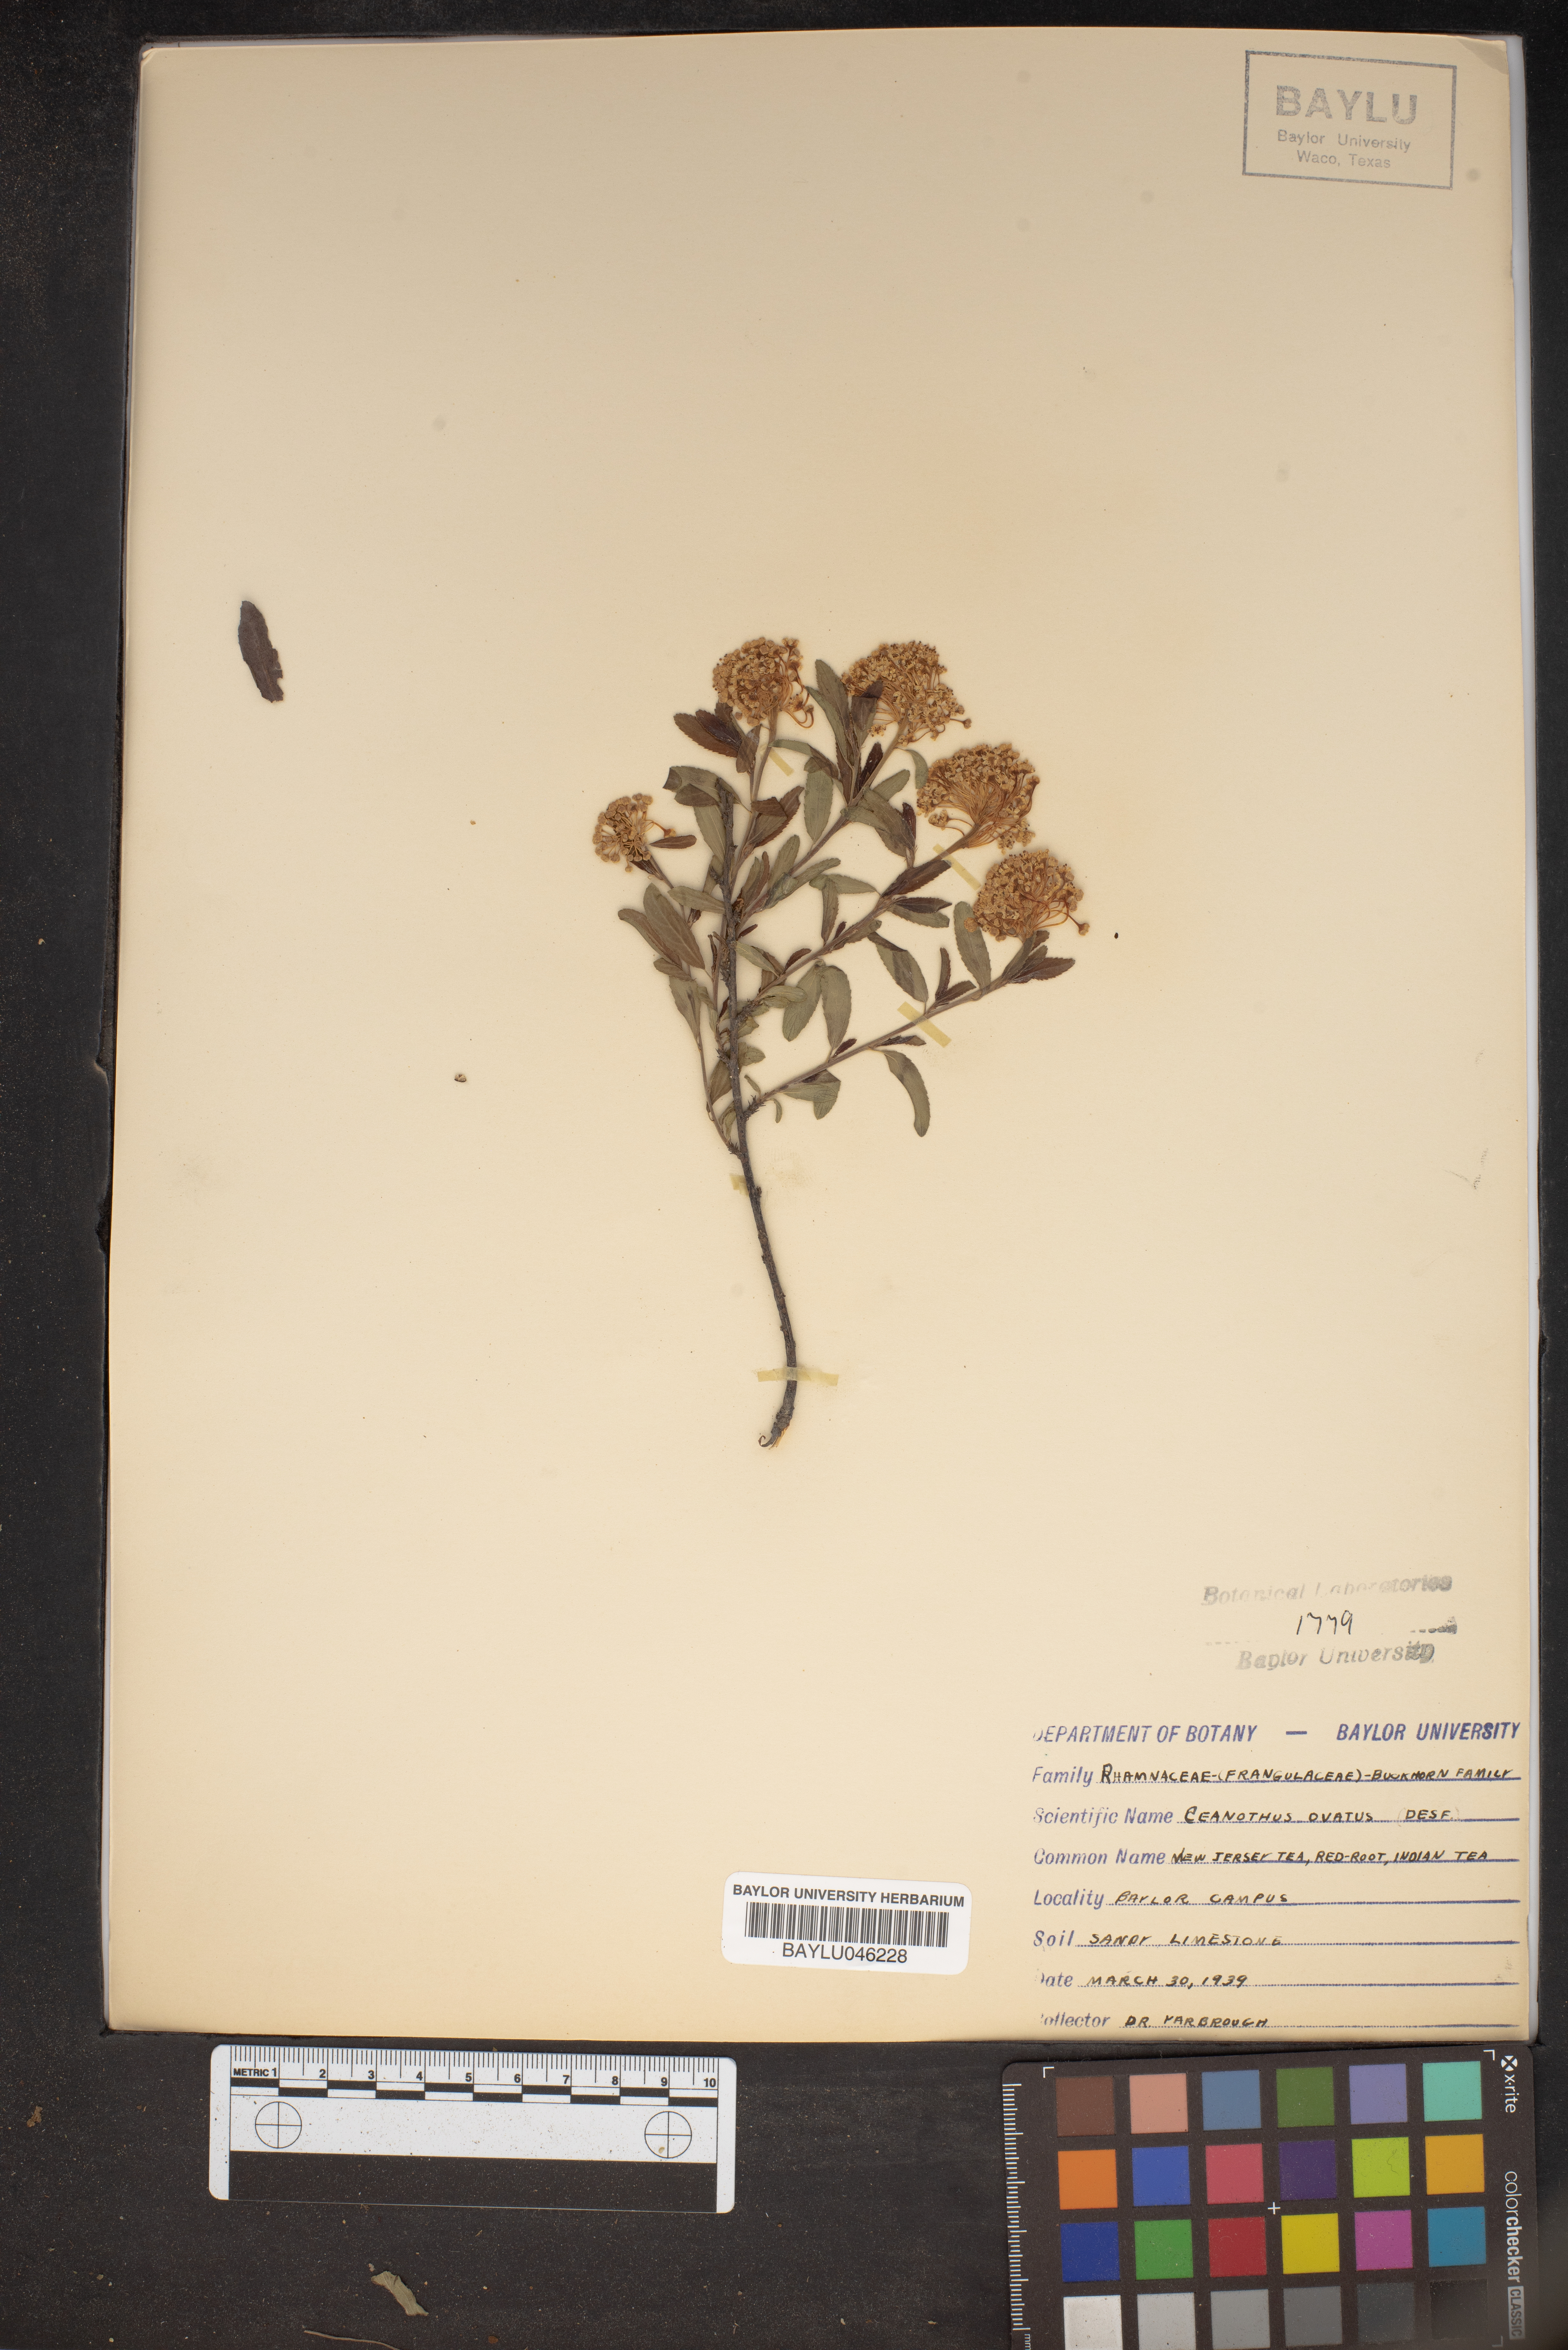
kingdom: Plantae
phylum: Tracheophyta
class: Magnoliopsida
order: Rosales
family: Rhamnaceae
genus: Ceanothus
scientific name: Ceanothus herbaceus
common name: Inland ceanothus
